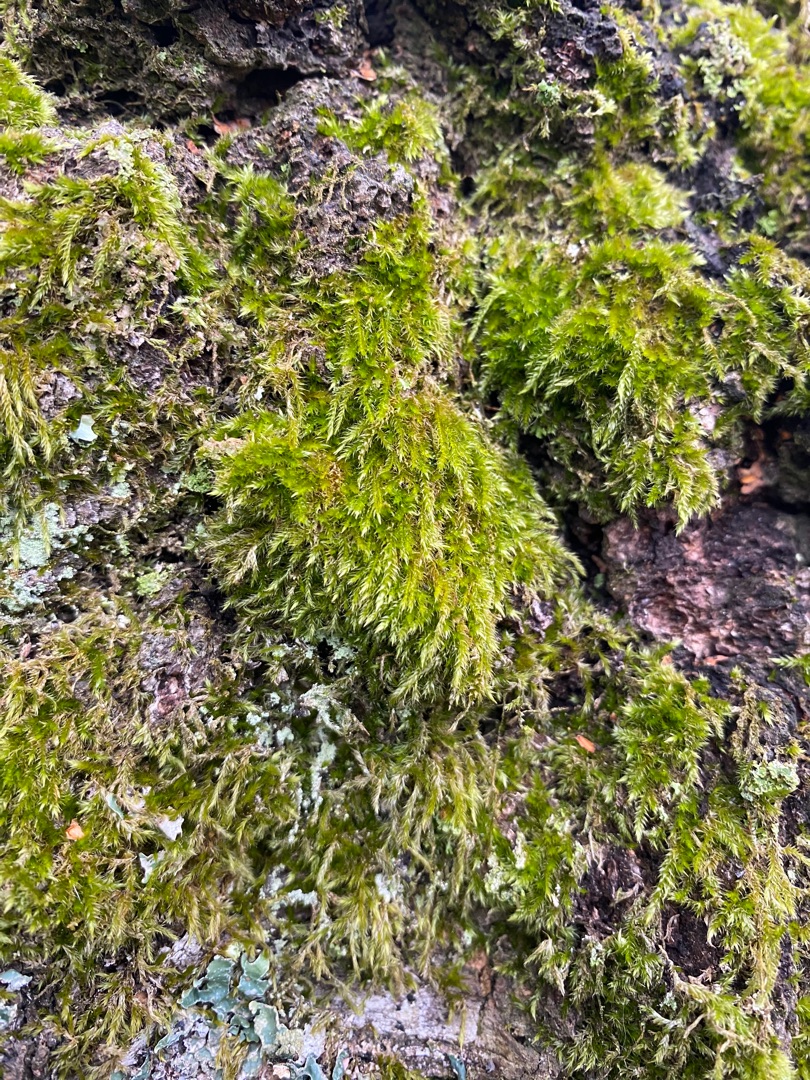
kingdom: Plantae
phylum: Bryophyta
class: Bryopsida
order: Hypnales
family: Hypnaceae
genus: Hypnum
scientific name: Hypnum
